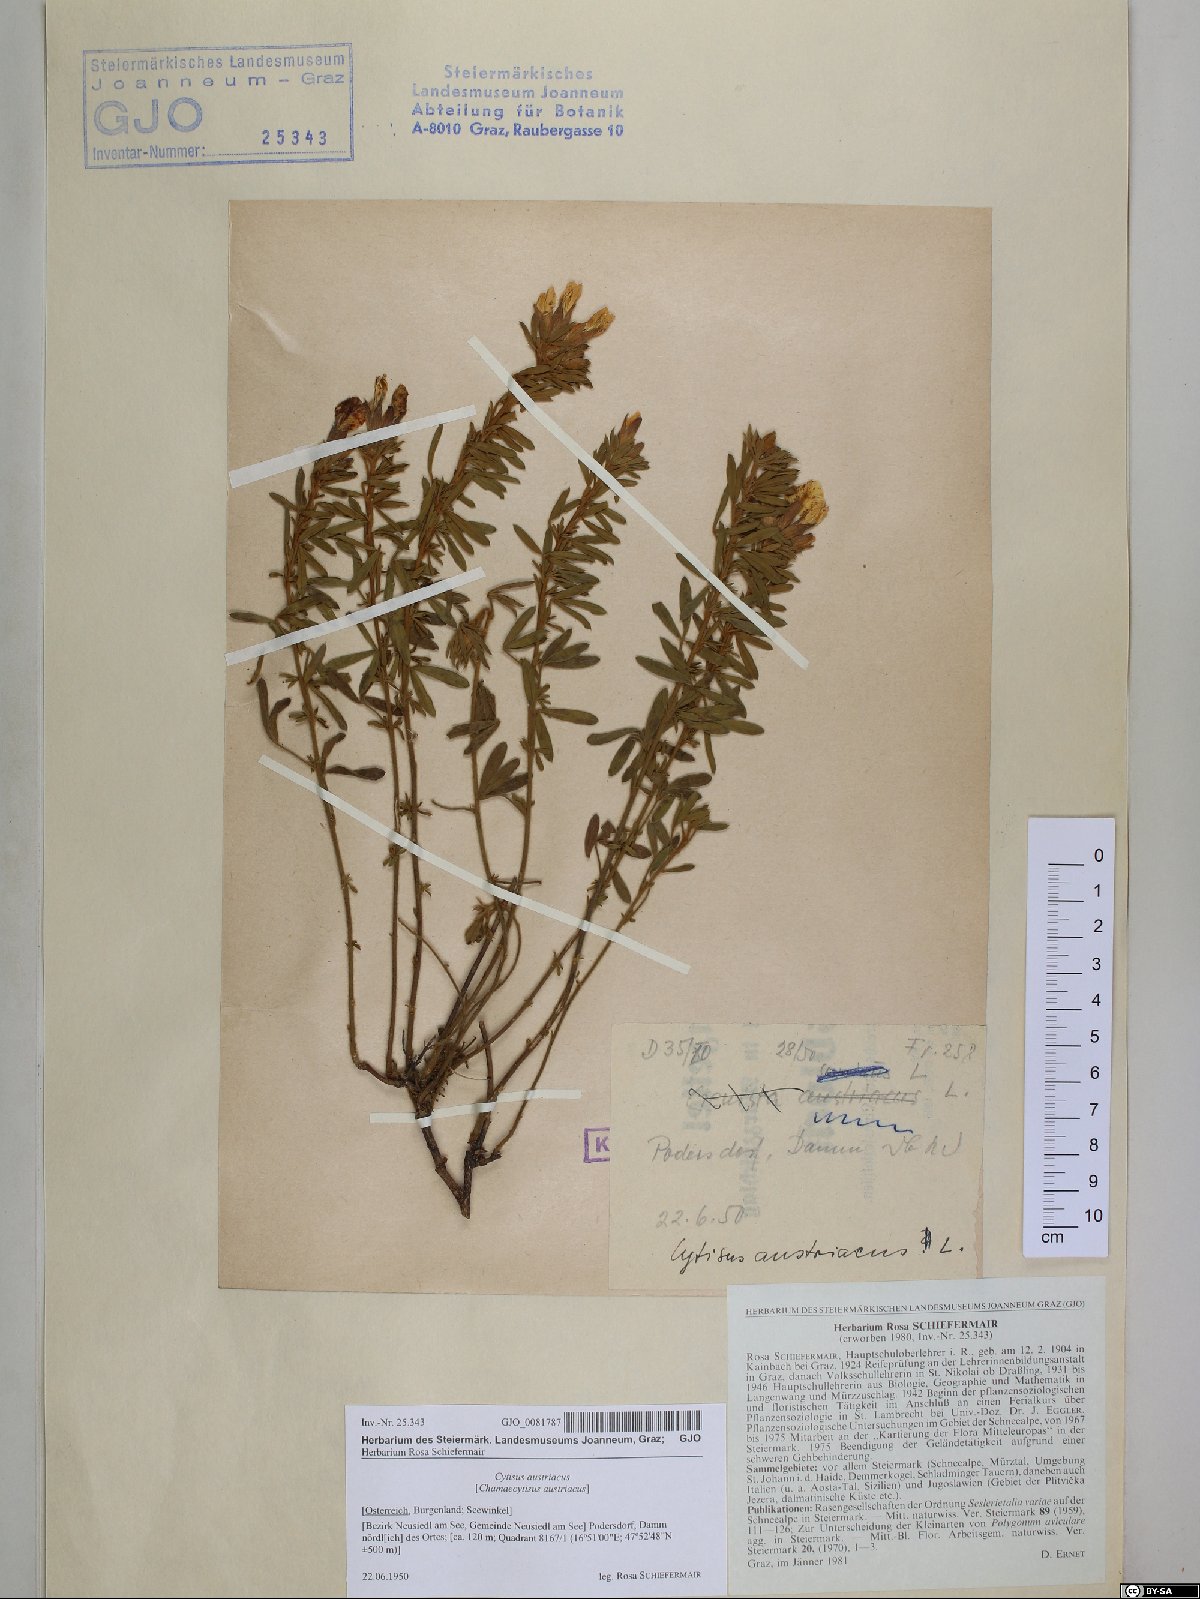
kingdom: Plantae
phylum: Tracheophyta
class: Magnoliopsida
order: Fabales
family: Fabaceae
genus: Chamaecytisus
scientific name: Chamaecytisus austriacus
